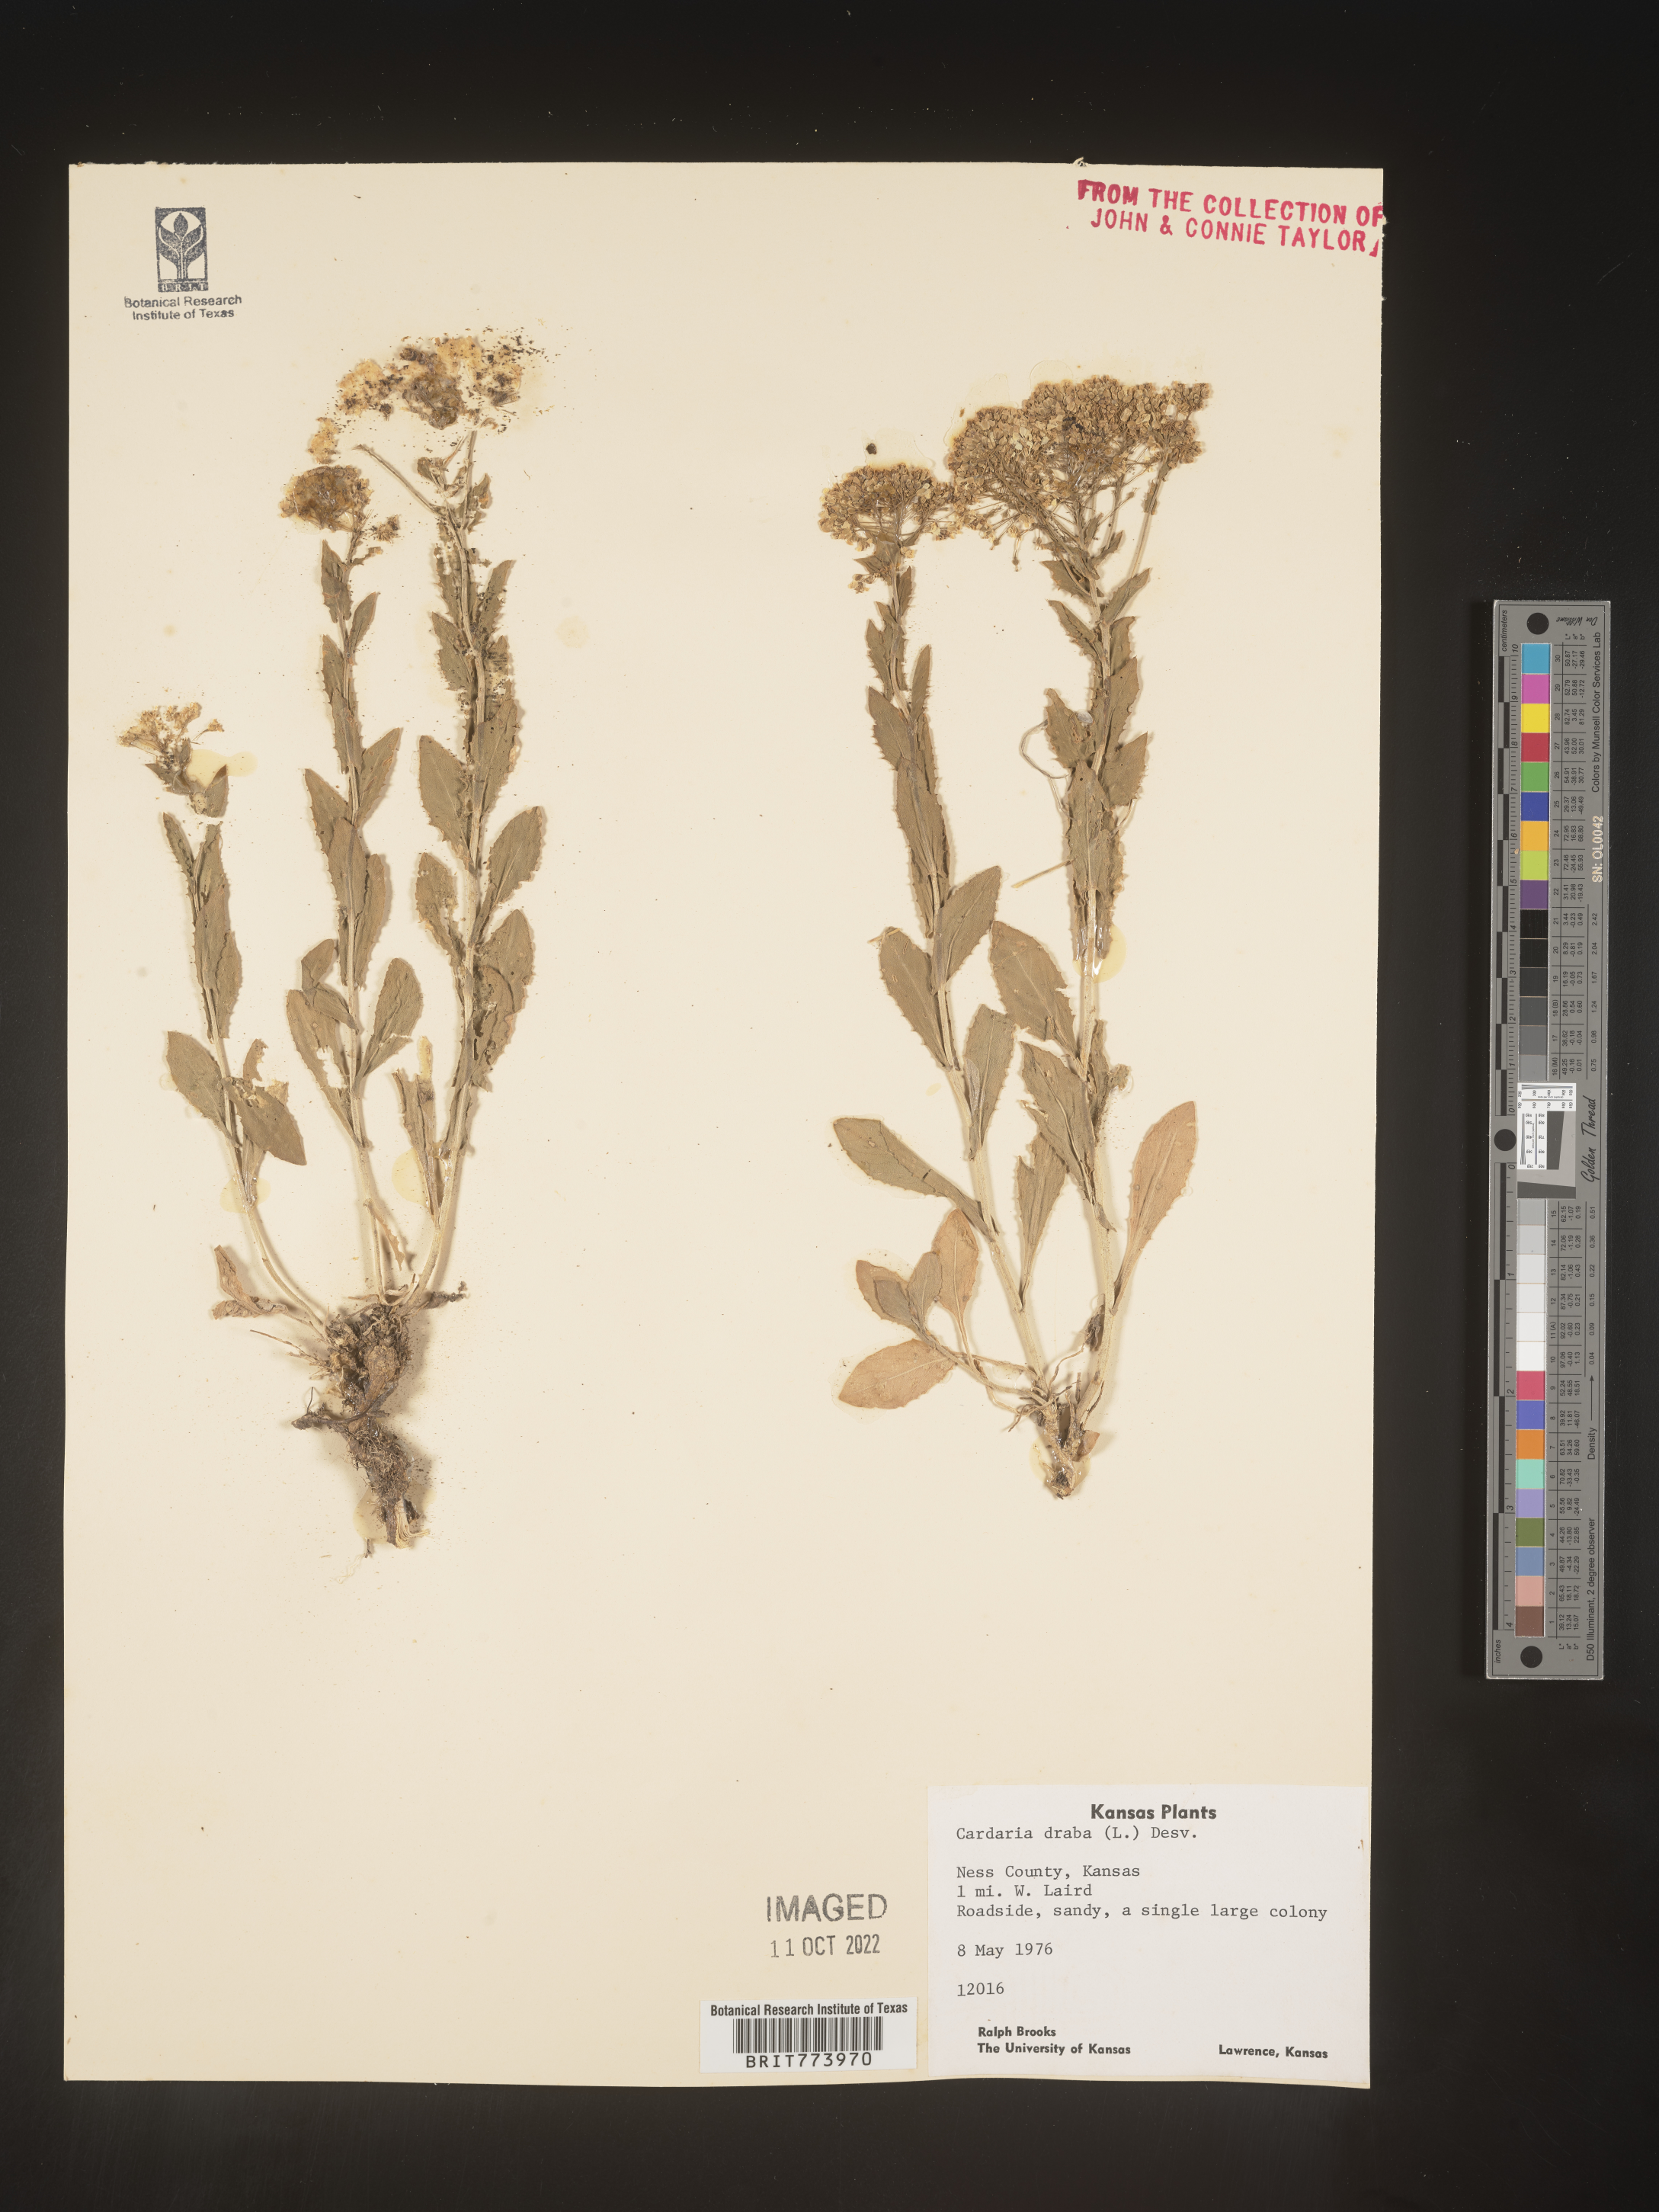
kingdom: Plantae
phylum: Tracheophyta
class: Magnoliopsida
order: Brassicales
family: Brassicaceae
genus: Lepidium
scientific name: Lepidium draba
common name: Hoary cress
